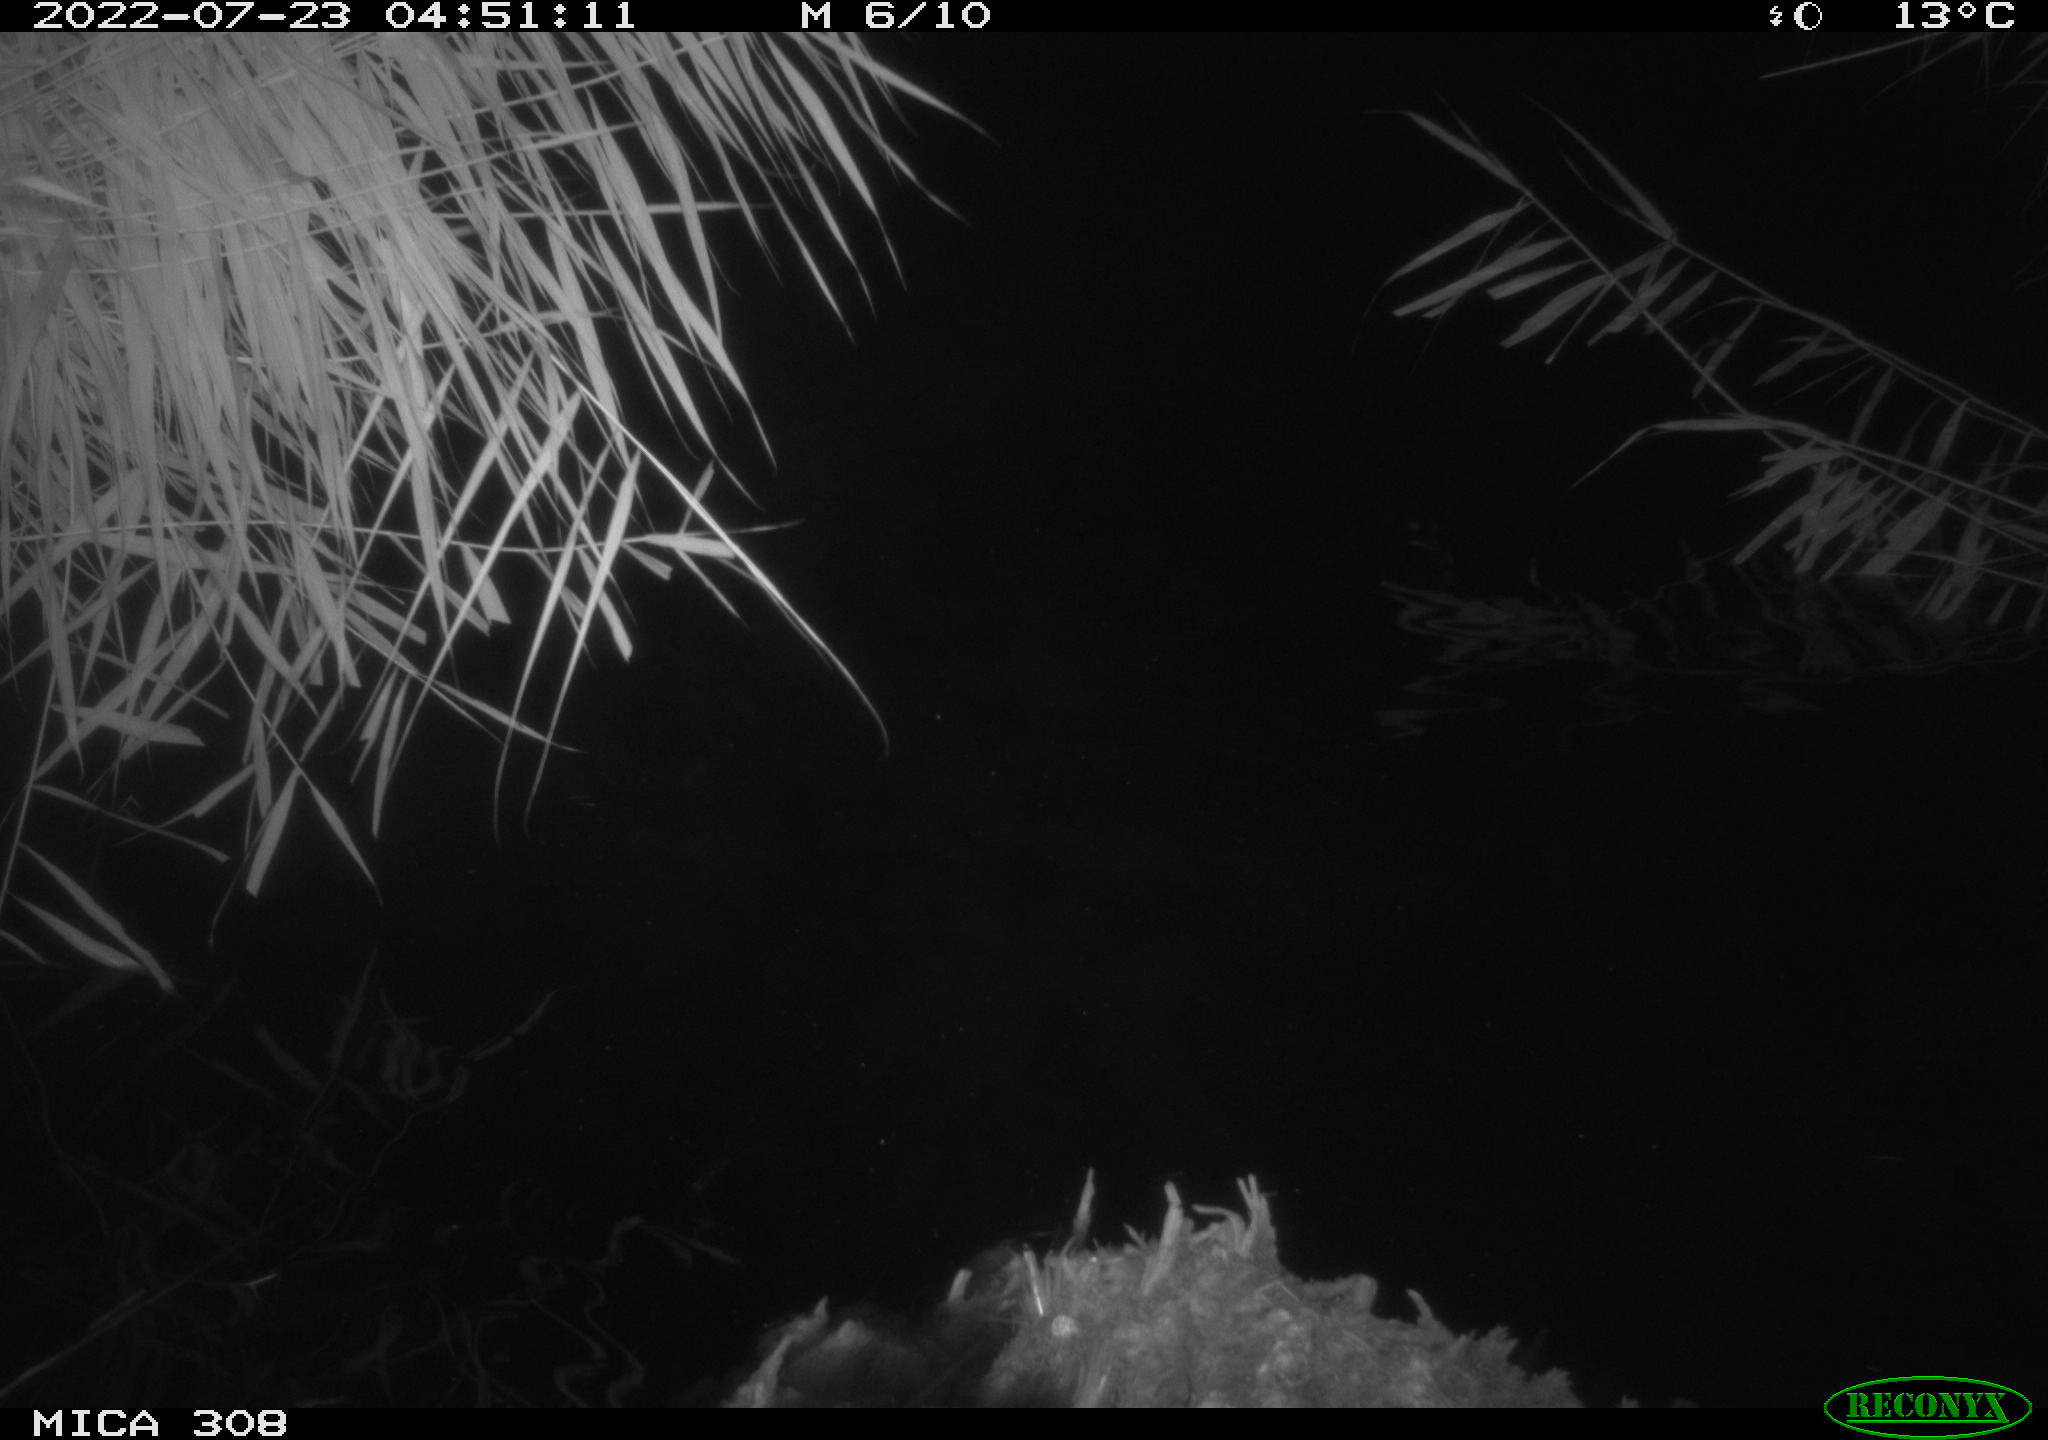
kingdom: Animalia
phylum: Chordata
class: Aves
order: Anseriformes
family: Anatidae
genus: Anas
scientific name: Anas platyrhynchos
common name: Mallard
